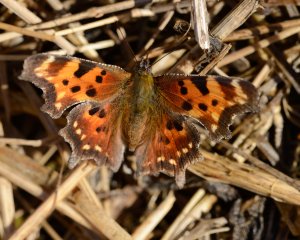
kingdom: Animalia
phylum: Arthropoda
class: Insecta
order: Lepidoptera
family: Nymphalidae
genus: Polygonia
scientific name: Polygonia faunus
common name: Green Comma
